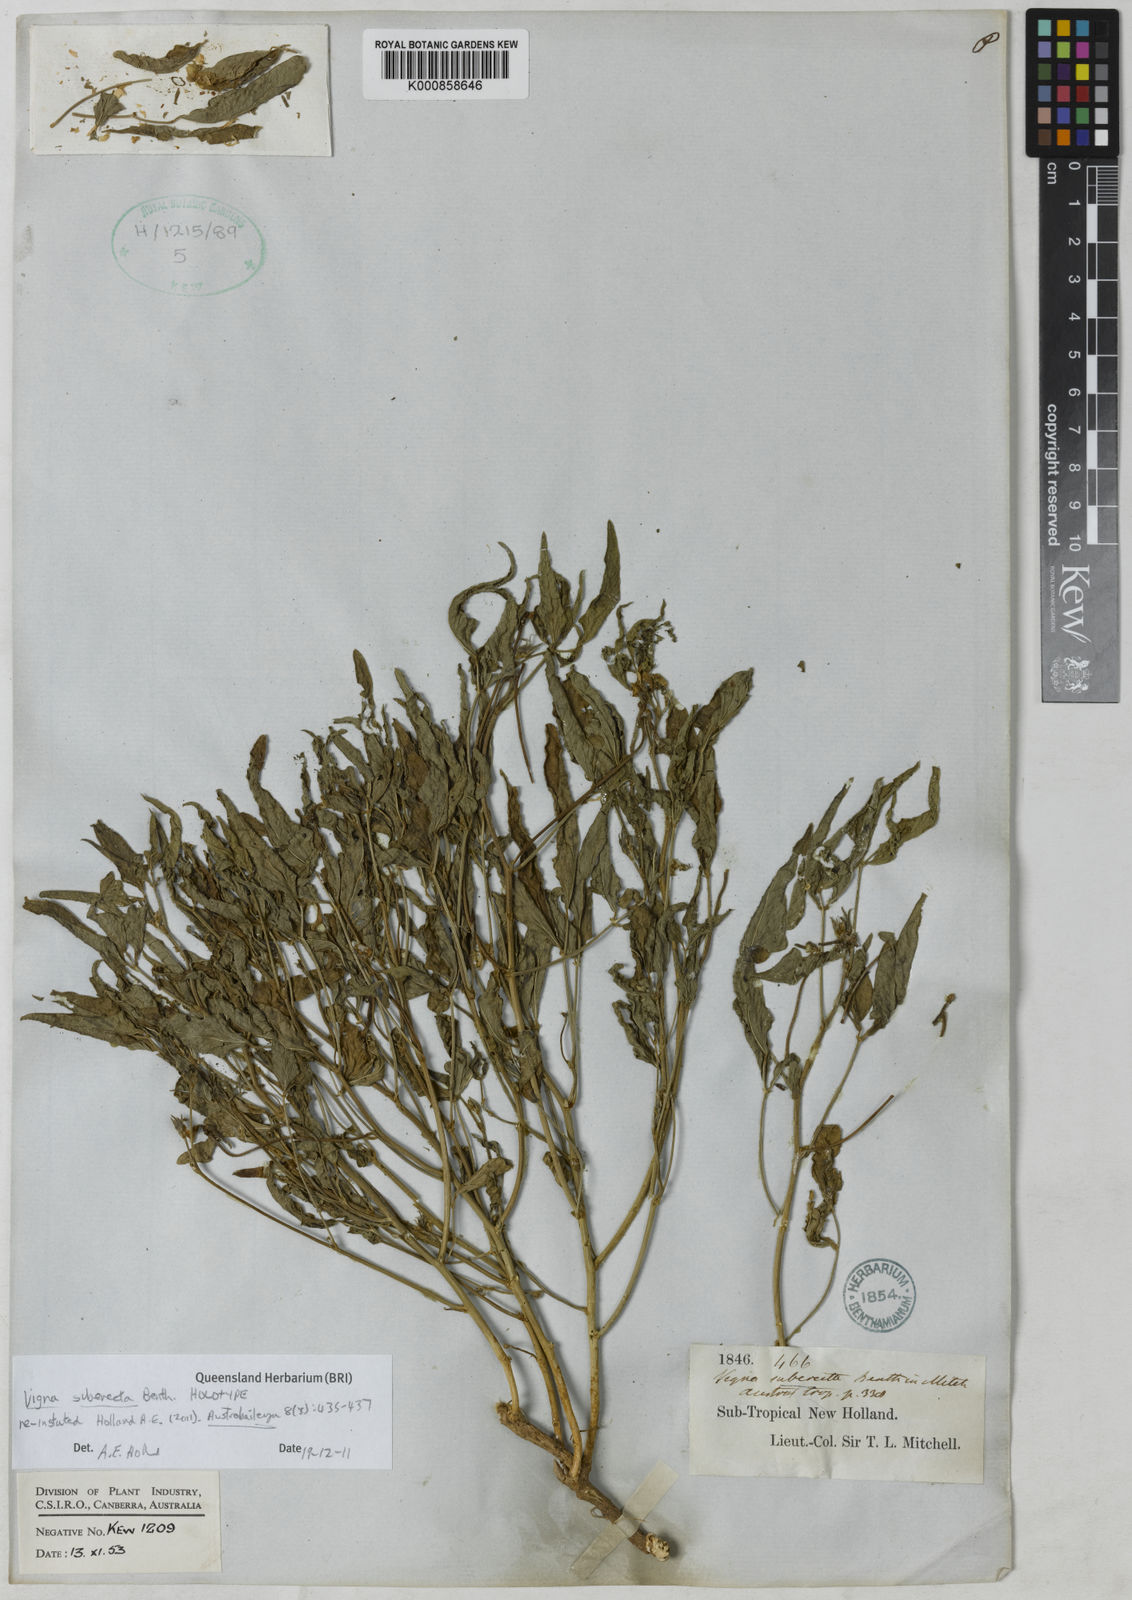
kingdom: Plantae
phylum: Tracheophyta
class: Magnoliopsida
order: Fabales
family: Fabaceae
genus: Vigna
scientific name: Vigna lanceolata
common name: Maloga-bean
